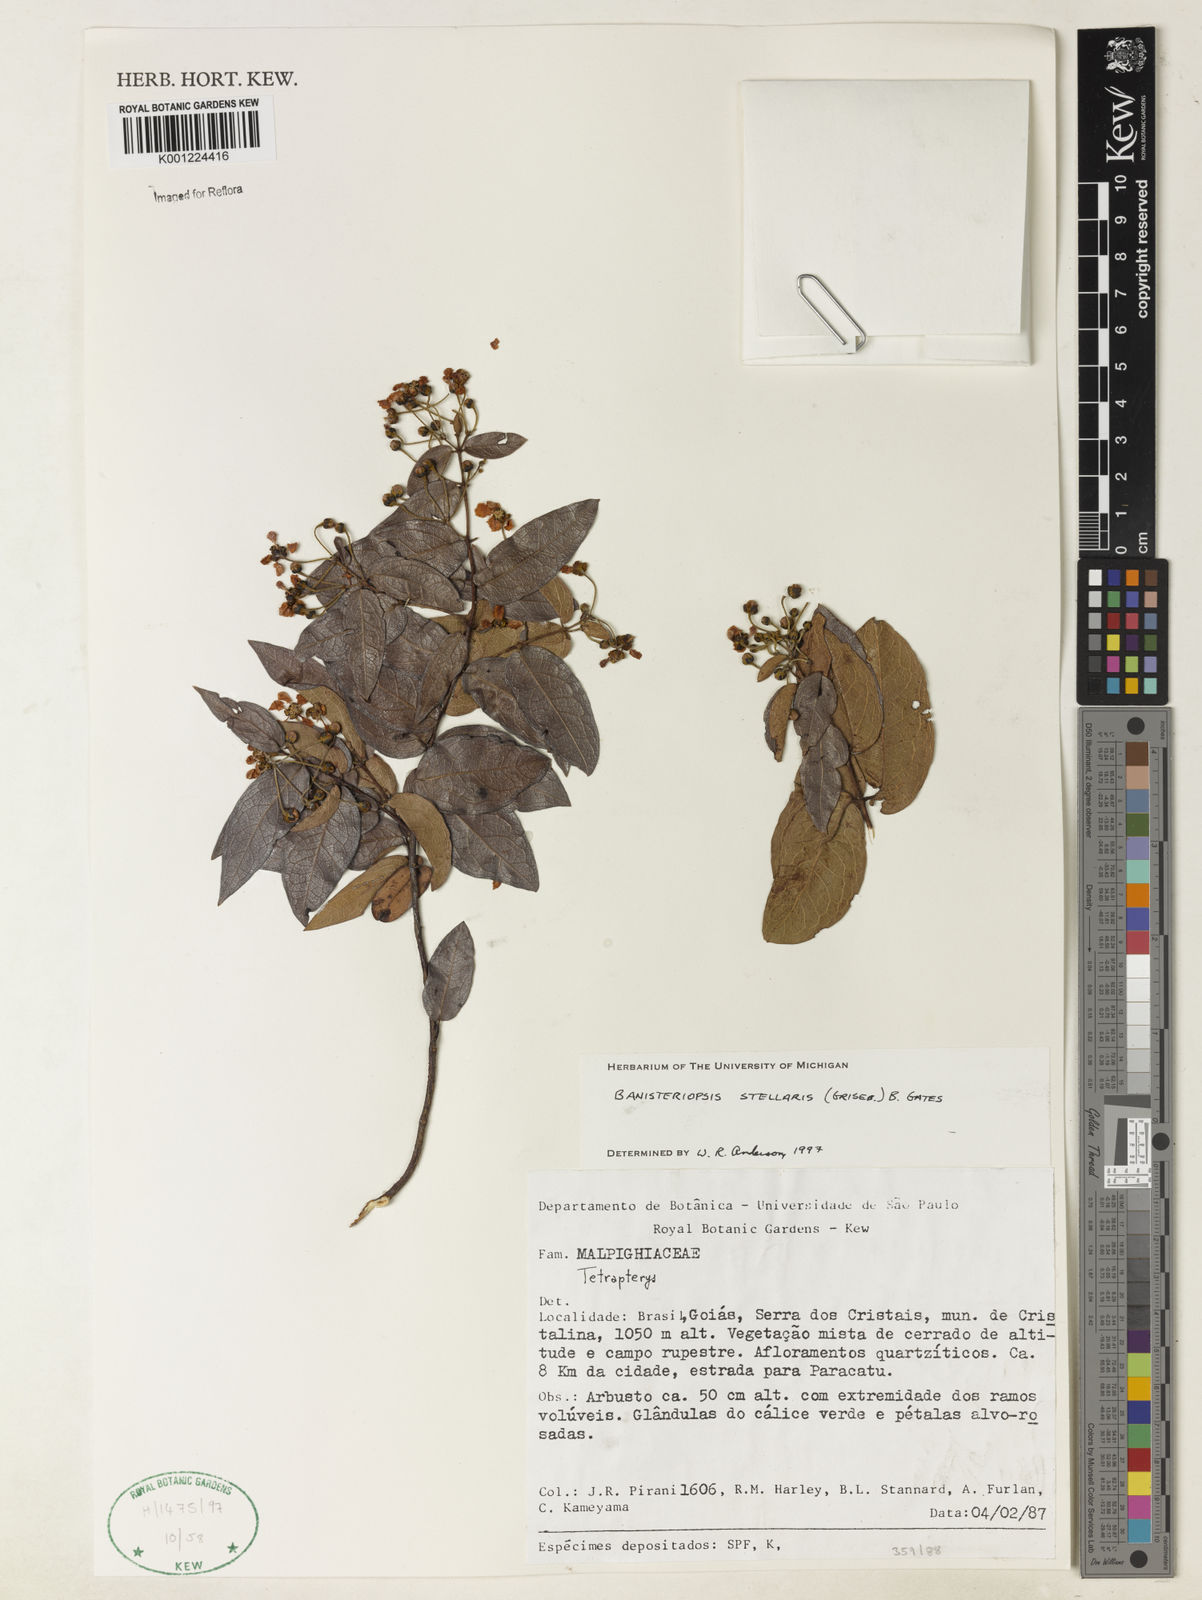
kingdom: Plantae
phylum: Tracheophyta
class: Magnoliopsida
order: Malpighiales
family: Malpighiaceae
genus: Banisteriopsis
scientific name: Banisteriopsis stellaris
